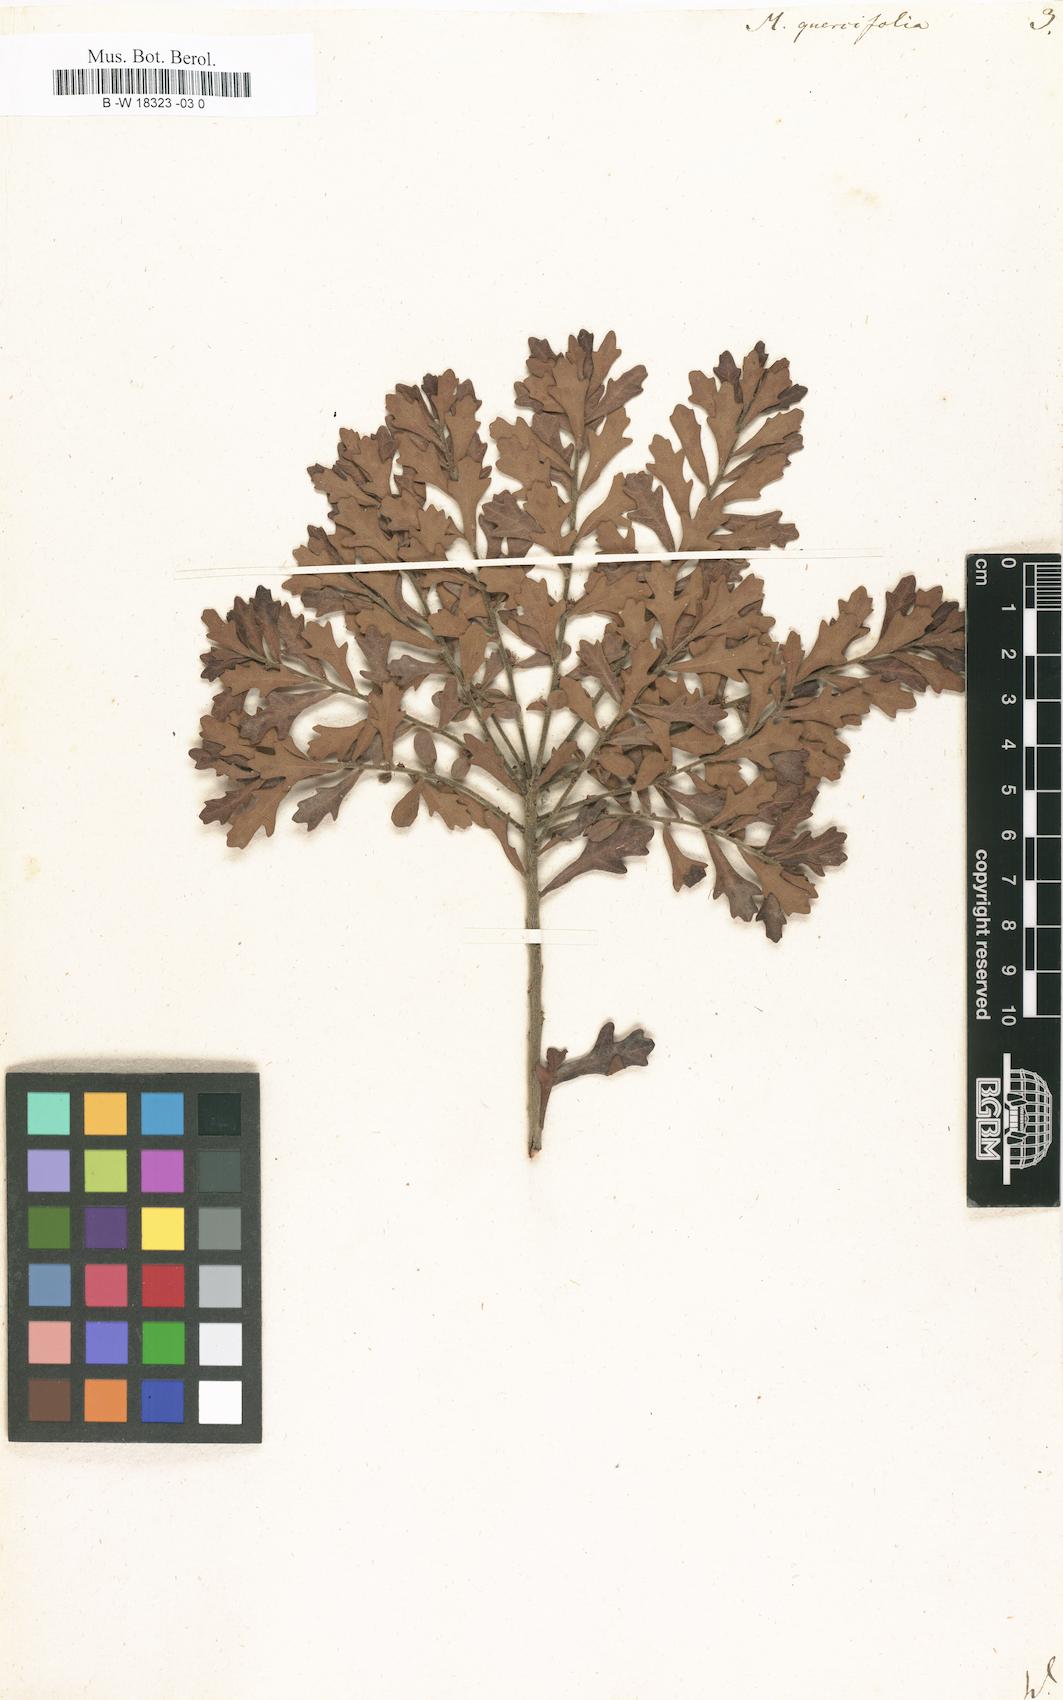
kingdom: Plantae
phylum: Tracheophyta
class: Magnoliopsida
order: Fagales
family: Myricaceae
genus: Morella
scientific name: Morella quercifolia
